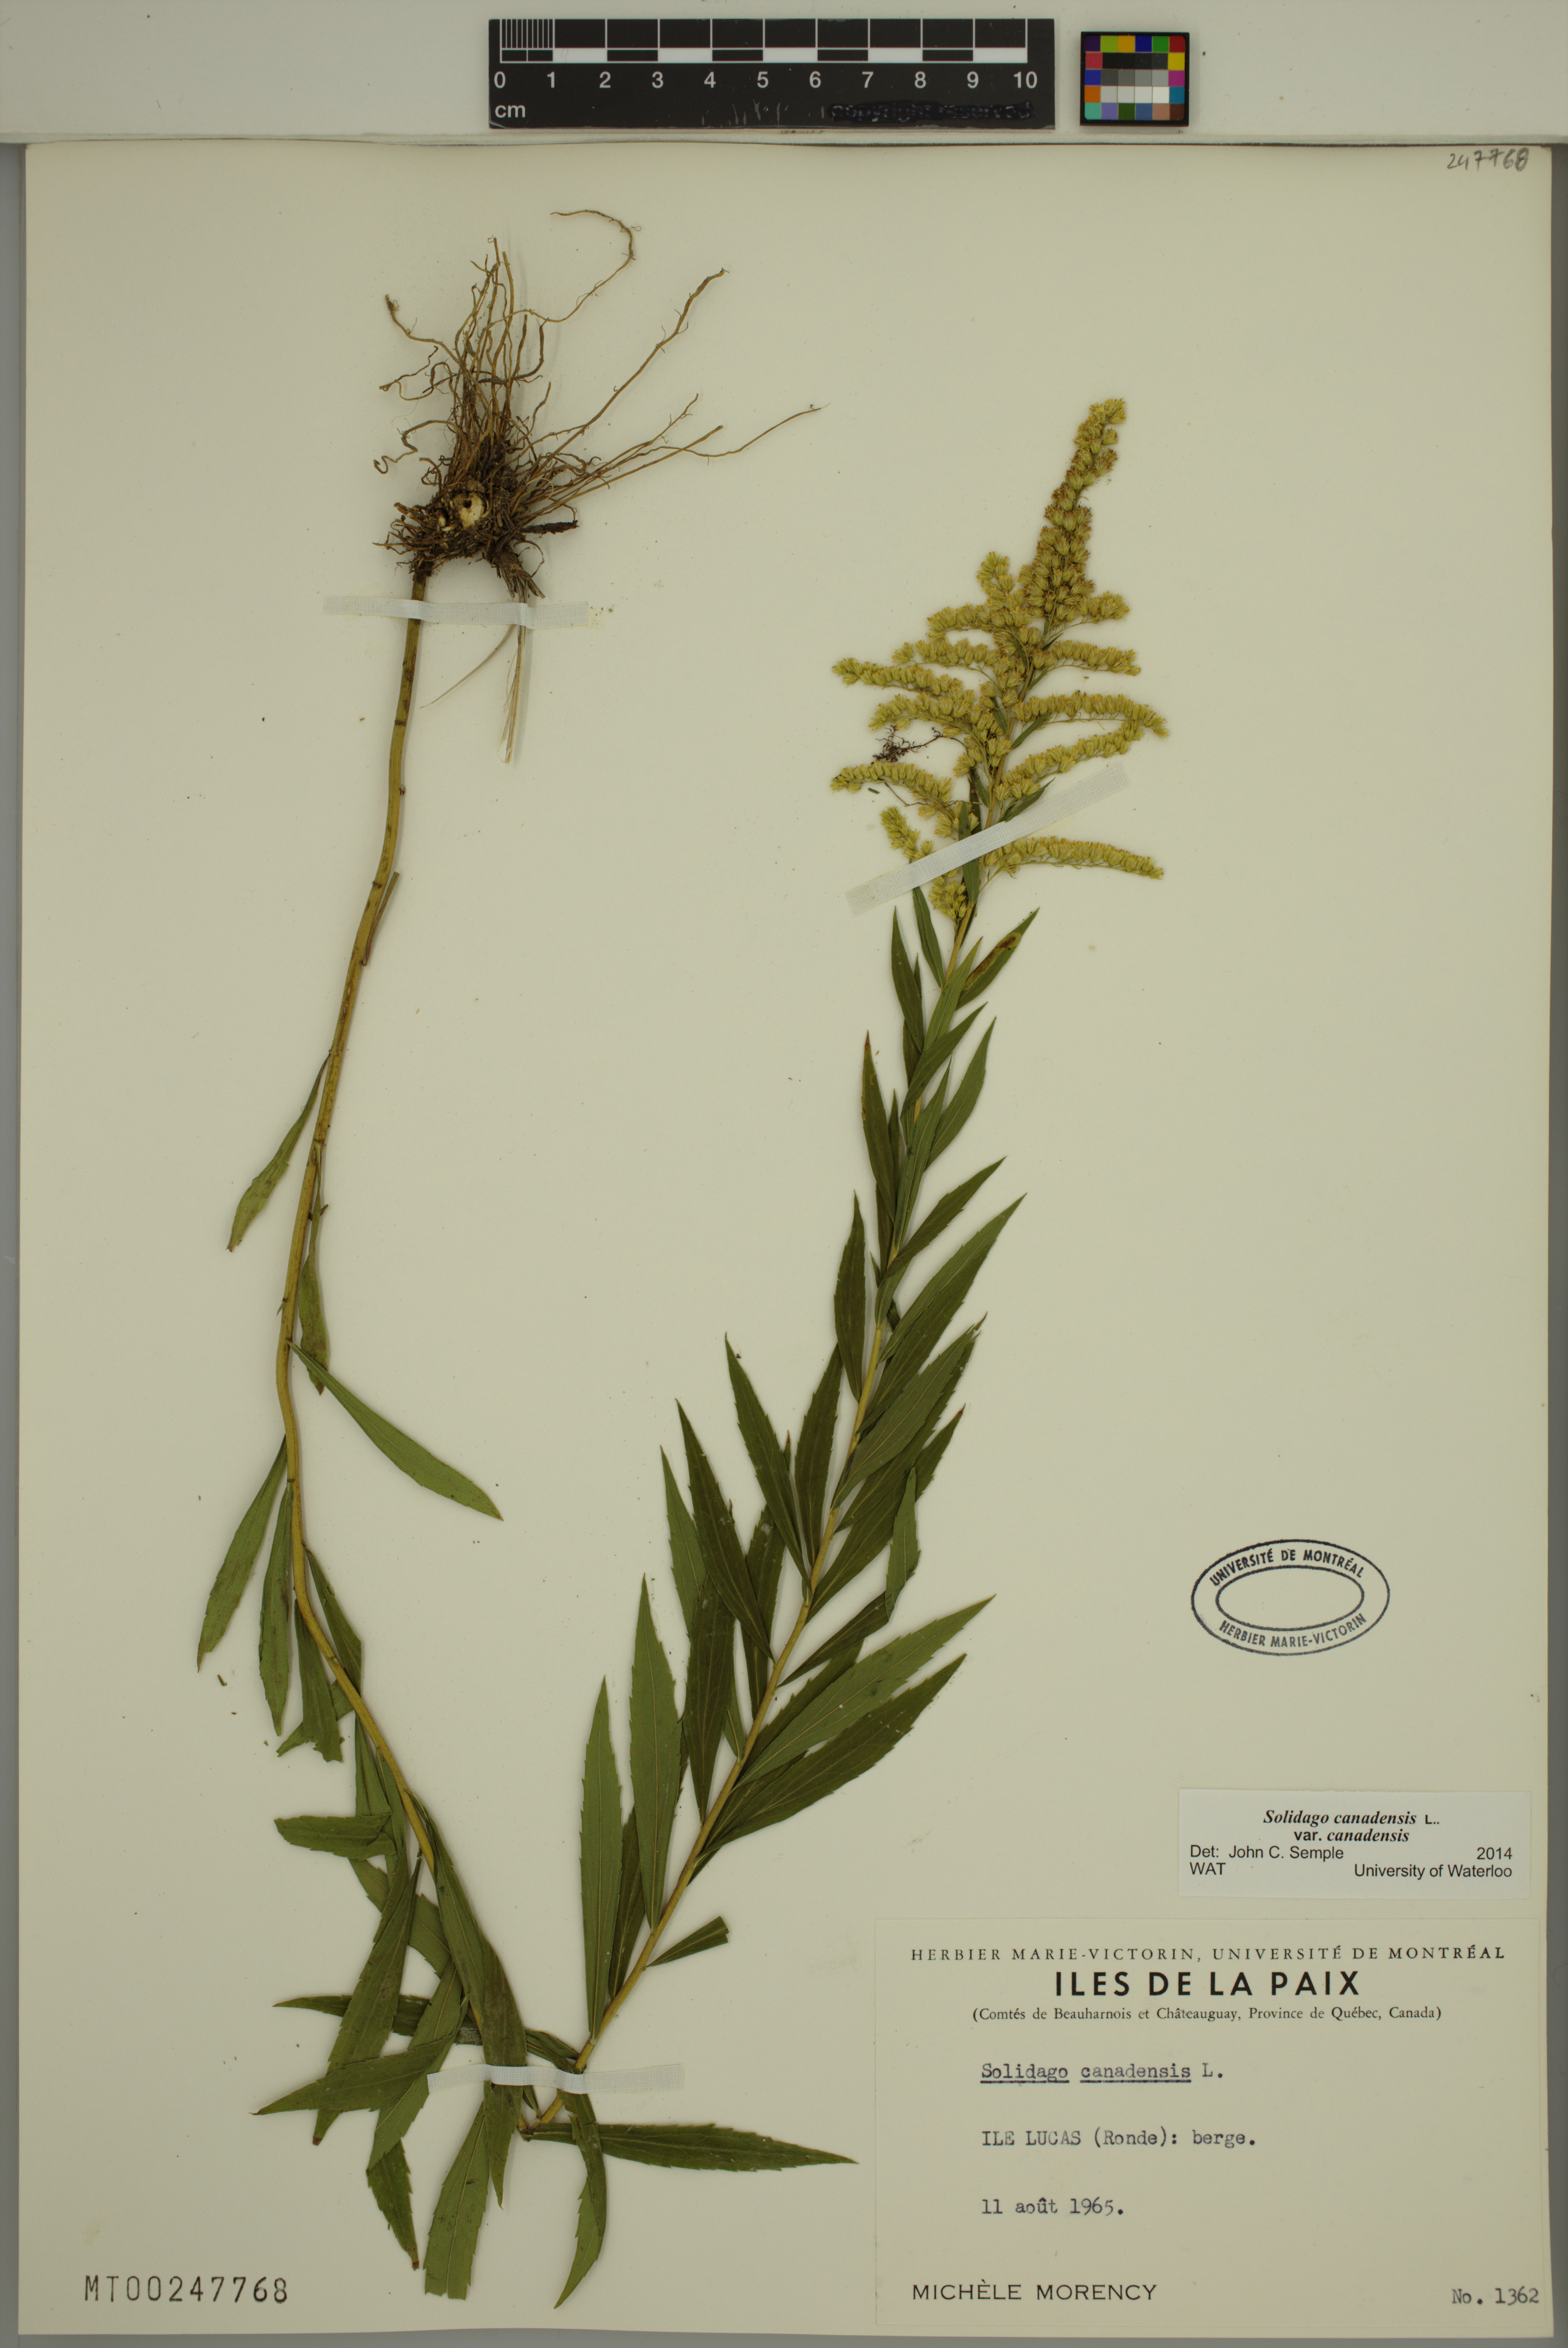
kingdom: Plantae
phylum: Tracheophyta
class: Magnoliopsida
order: Asterales
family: Asteraceae
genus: Solidago
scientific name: Solidago canadensis
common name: Canada goldenrod
